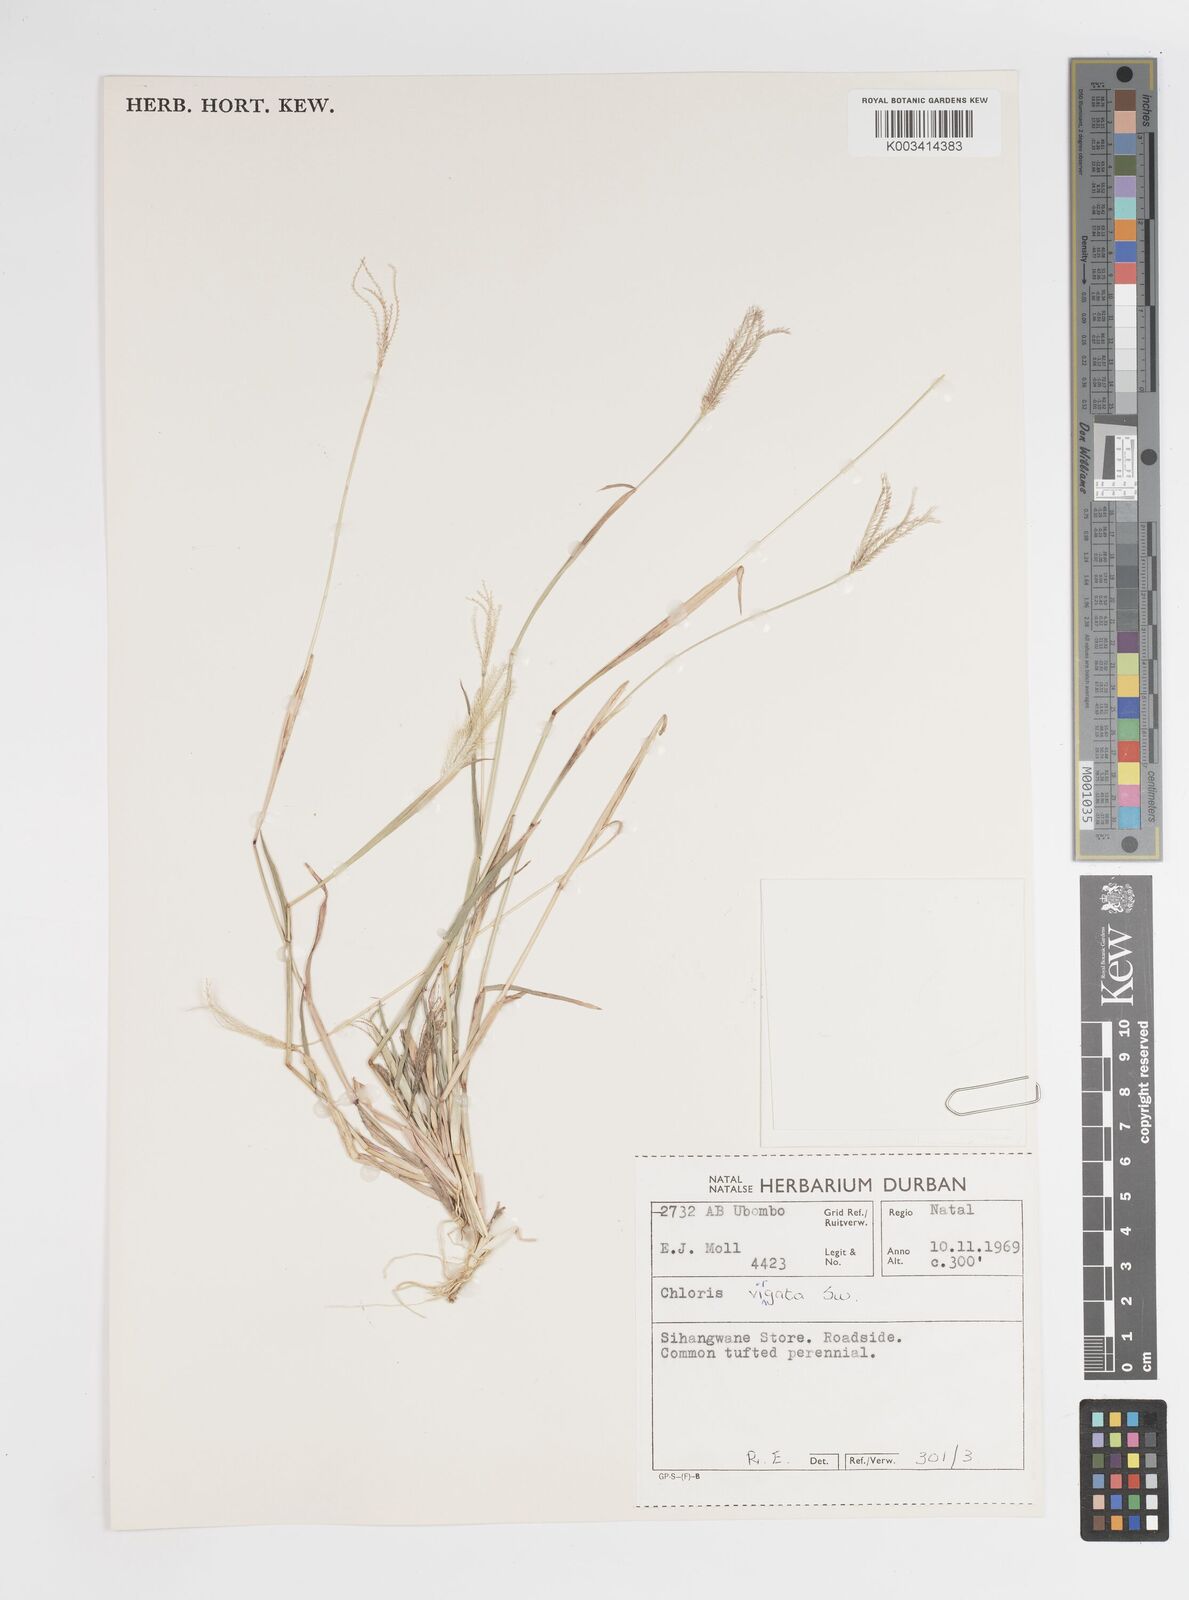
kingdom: Plantae
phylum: Tracheophyta
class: Liliopsida
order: Poales
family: Poaceae
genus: Chloris
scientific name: Chloris virgata
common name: Feathery rhodes-grass
